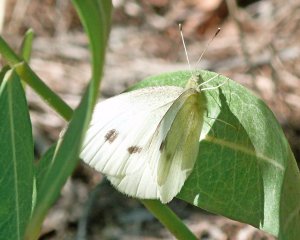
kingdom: Animalia
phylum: Arthropoda
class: Insecta
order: Lepidoptera
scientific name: Lepidoptera
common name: Butterflies
